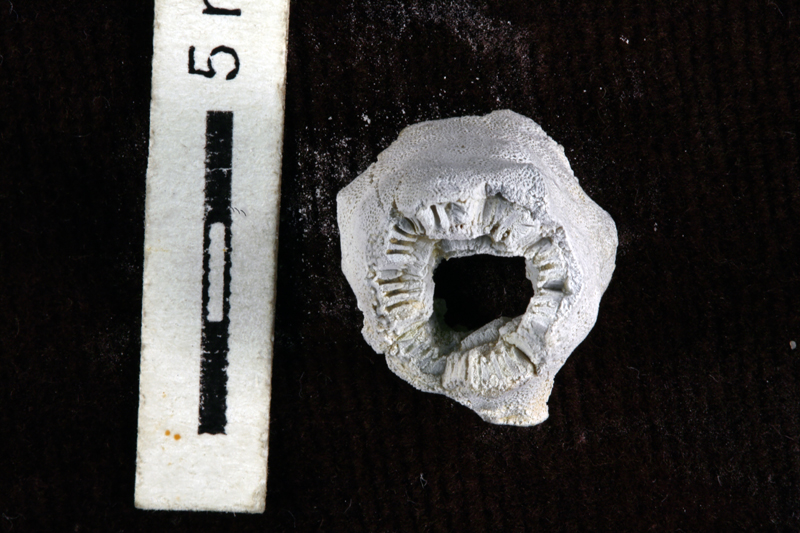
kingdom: Animalia
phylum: Echinodermata
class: Crinoidea
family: Palaeocystitidae
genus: Bromidocystis
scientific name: Bromidocystis bassleri
